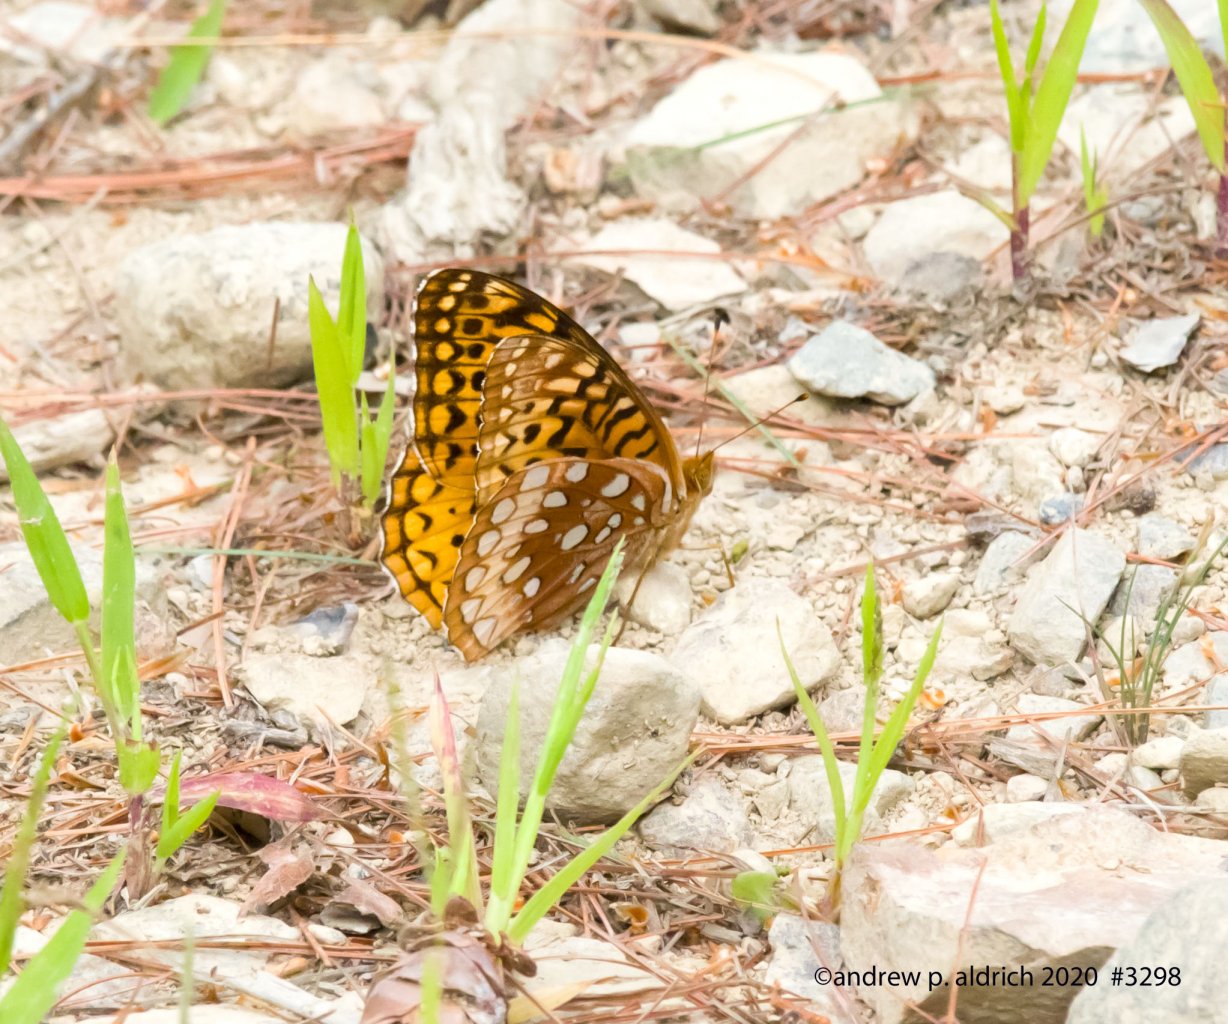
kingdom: Animalia
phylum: Arthropoda
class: Insecta
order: Lepidoptera
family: Nymphalidae
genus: Speyeria
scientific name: Speyeria cybele
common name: Great Spangled Fritillary
